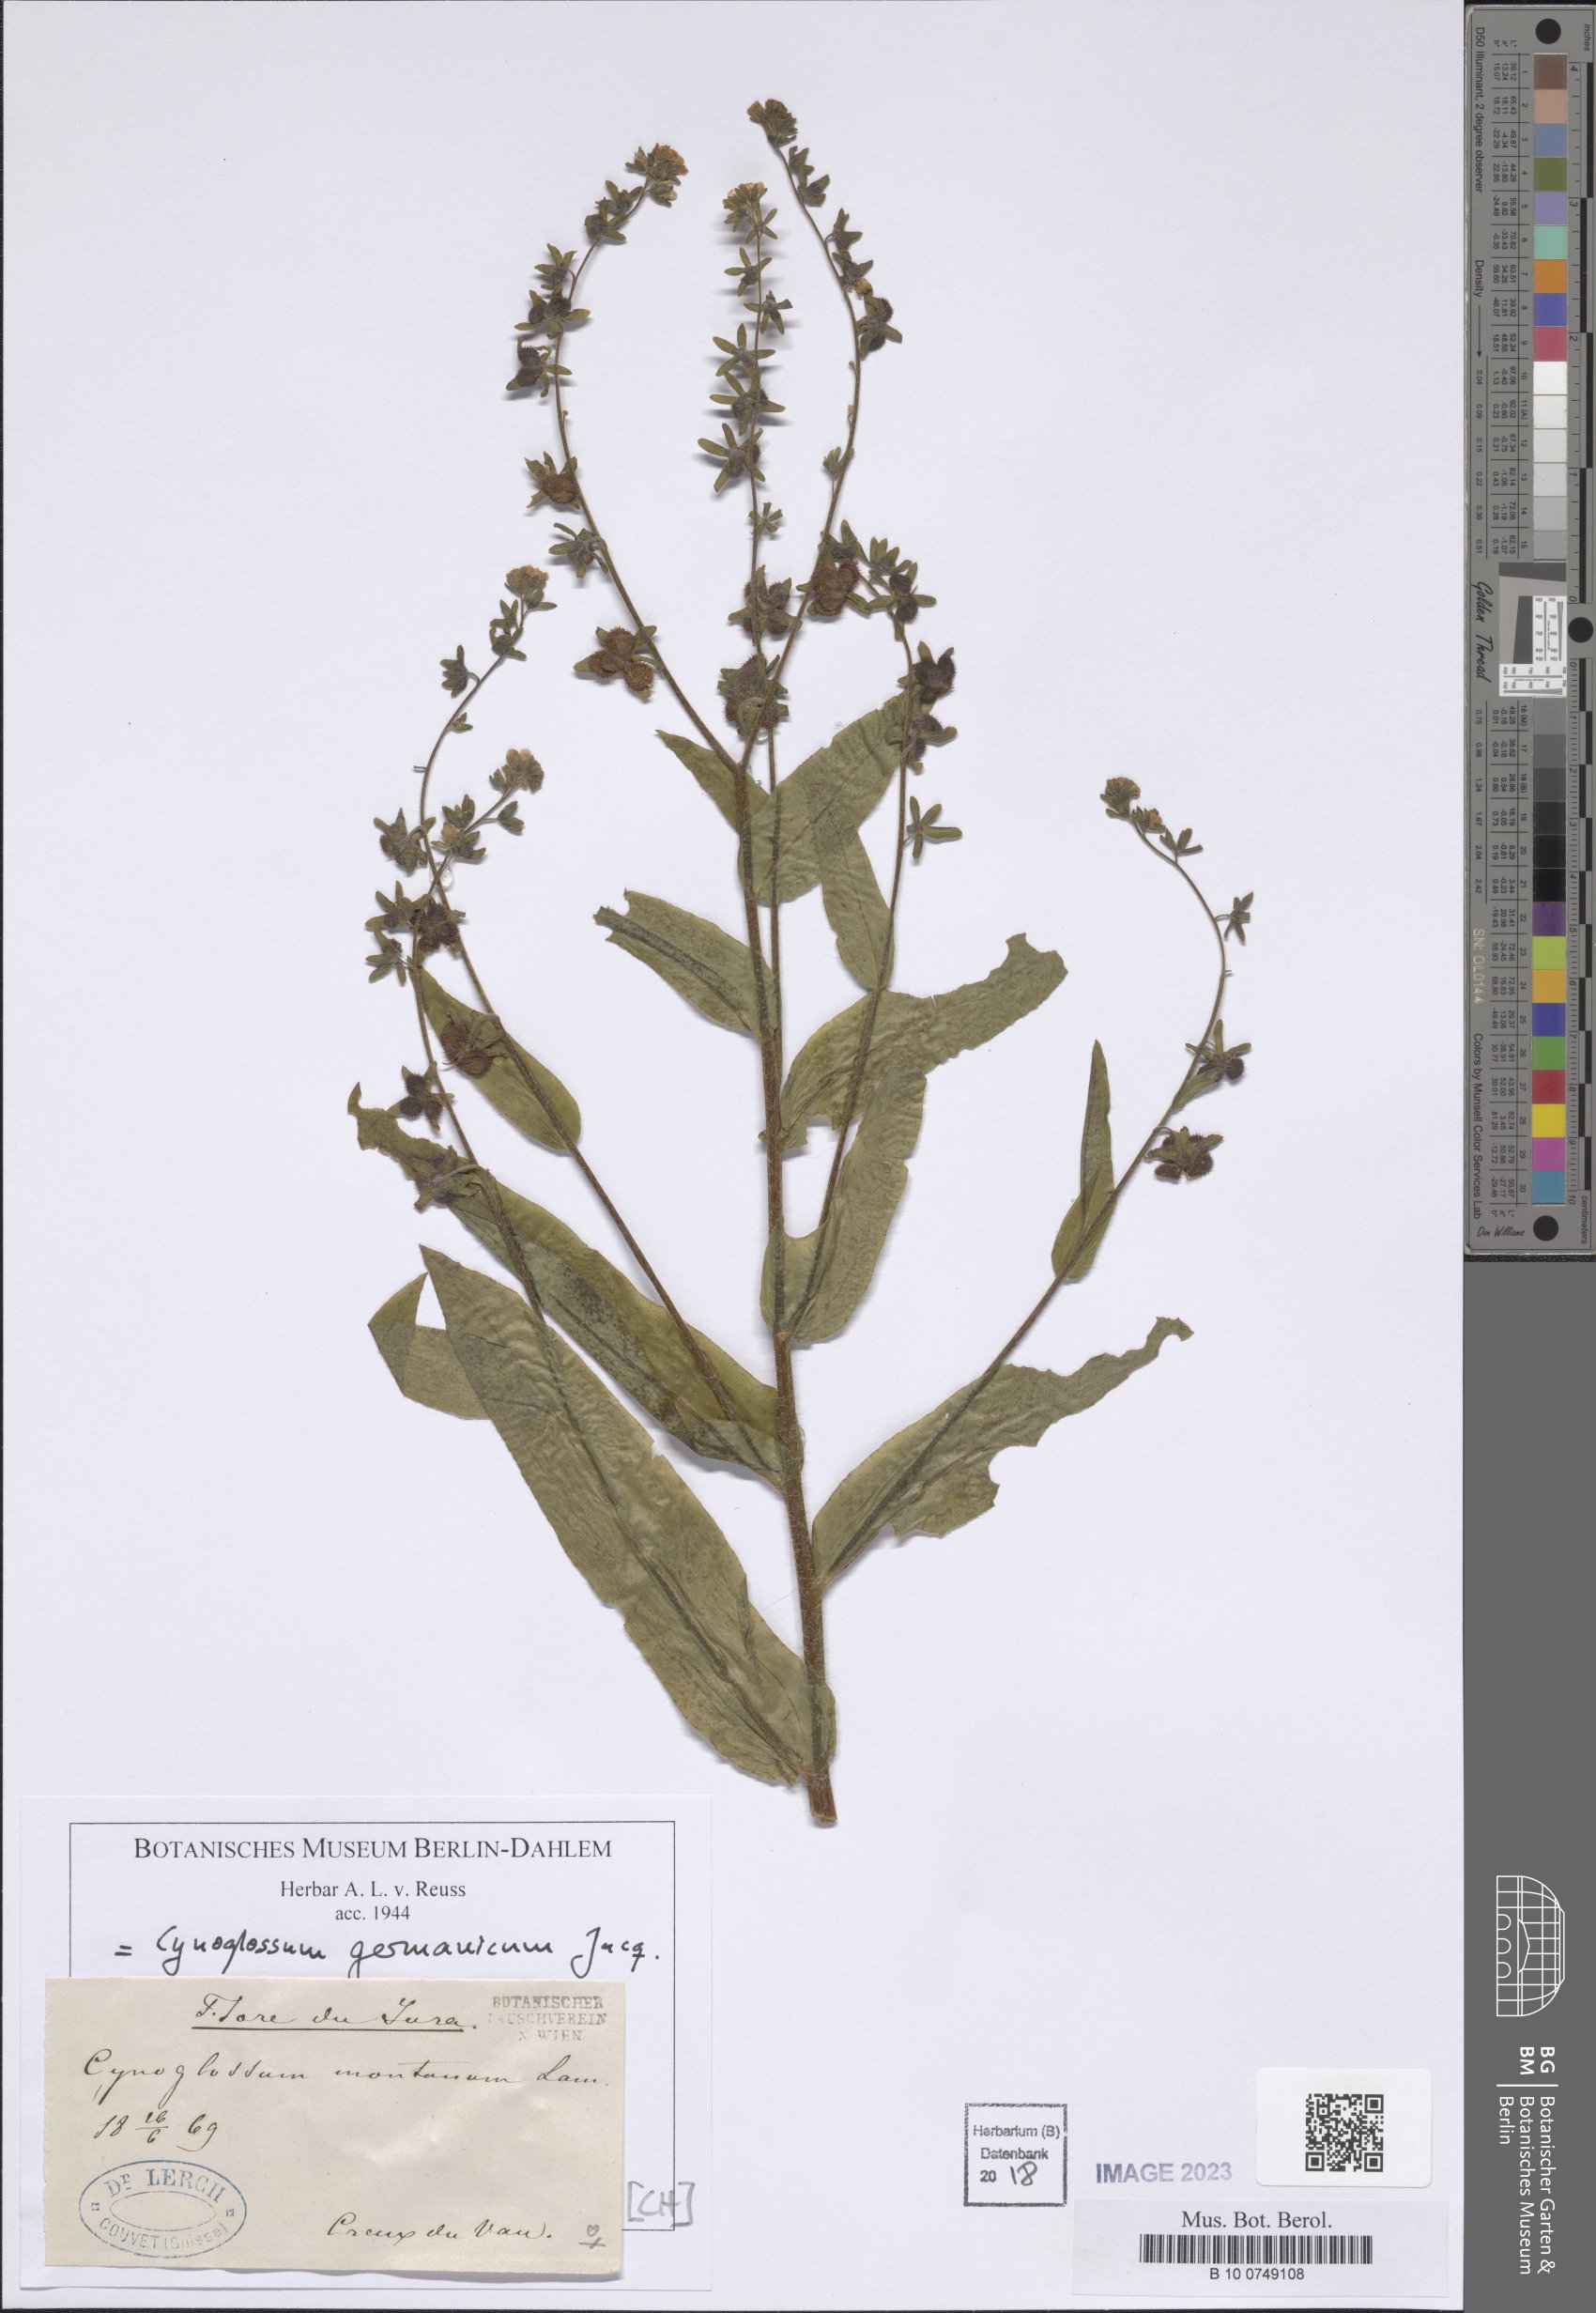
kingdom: Plantae
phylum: Tracheophyta
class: Magnoliopsida
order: Boraginales
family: Boraginaceae
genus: Cynoglossum
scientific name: Cynoglossum germanicum
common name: Green hound's-tongue
